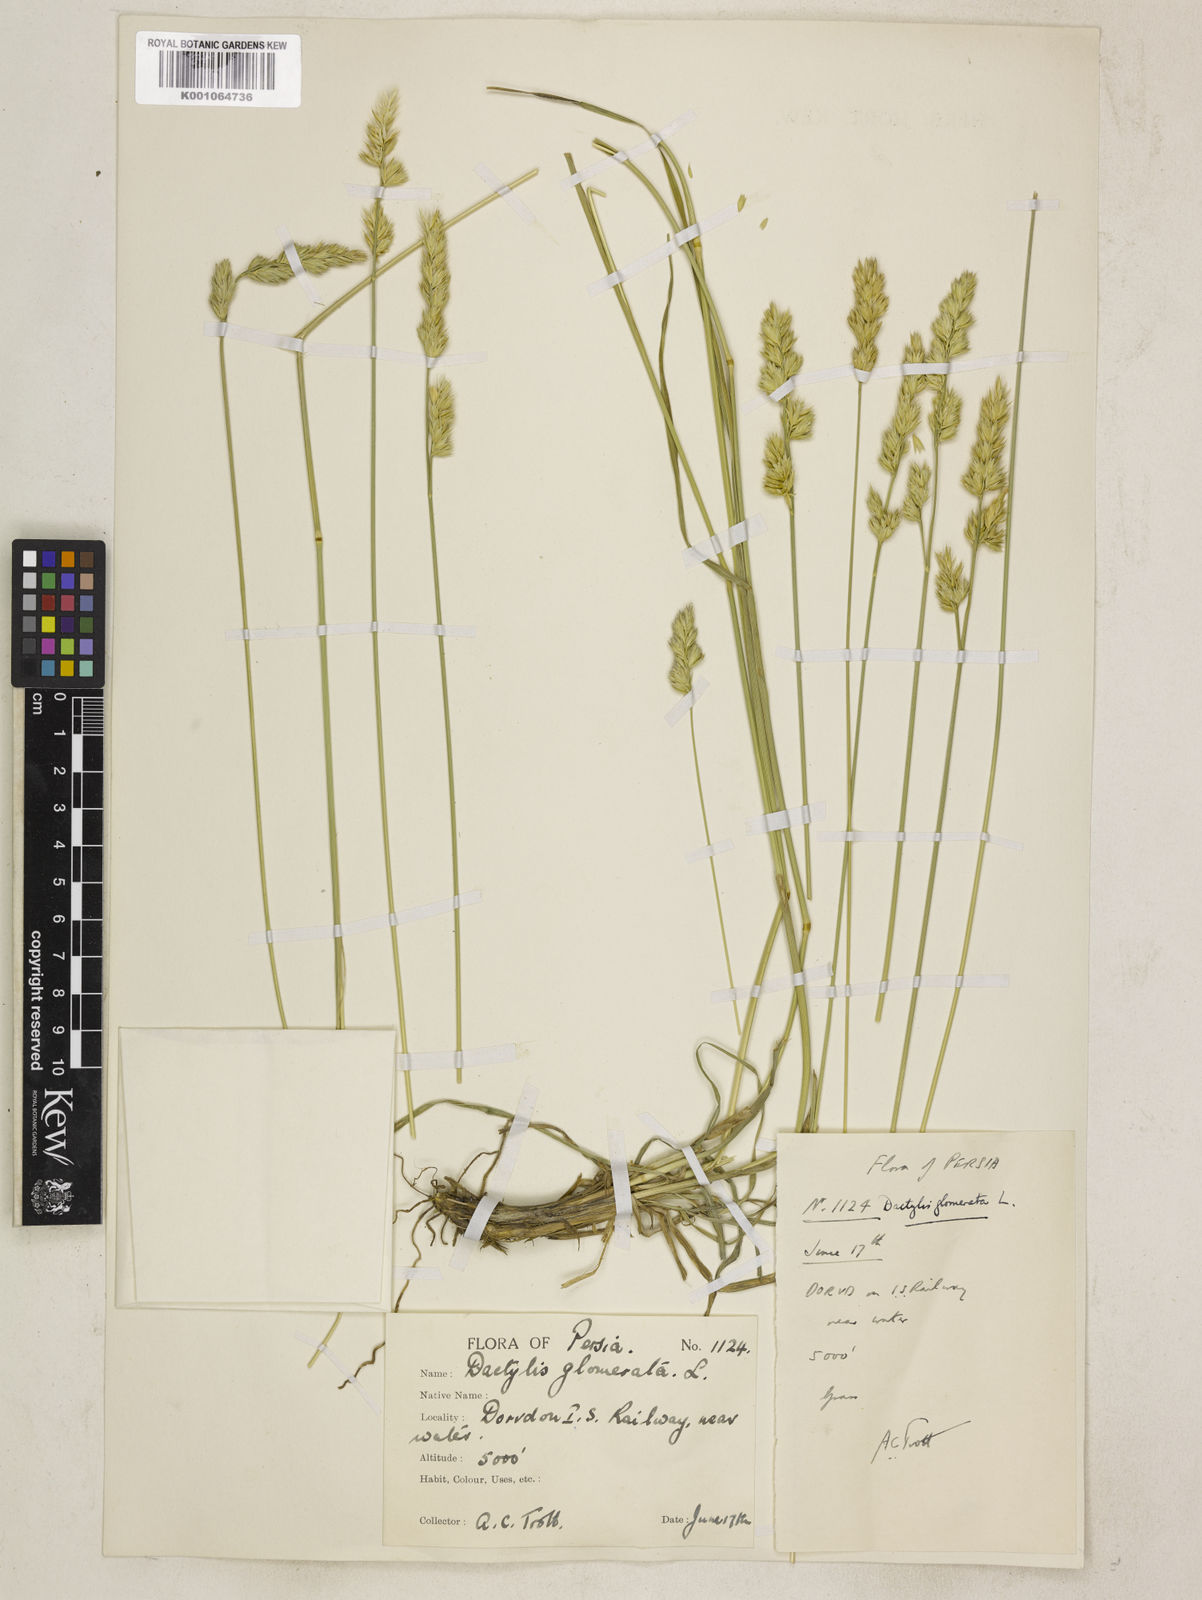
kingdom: Plantae
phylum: Tracheophyta
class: Liliopsida
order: Poales
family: Poaceae
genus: Dactylis
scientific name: Dactylis glomerata
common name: Orchardgrass
